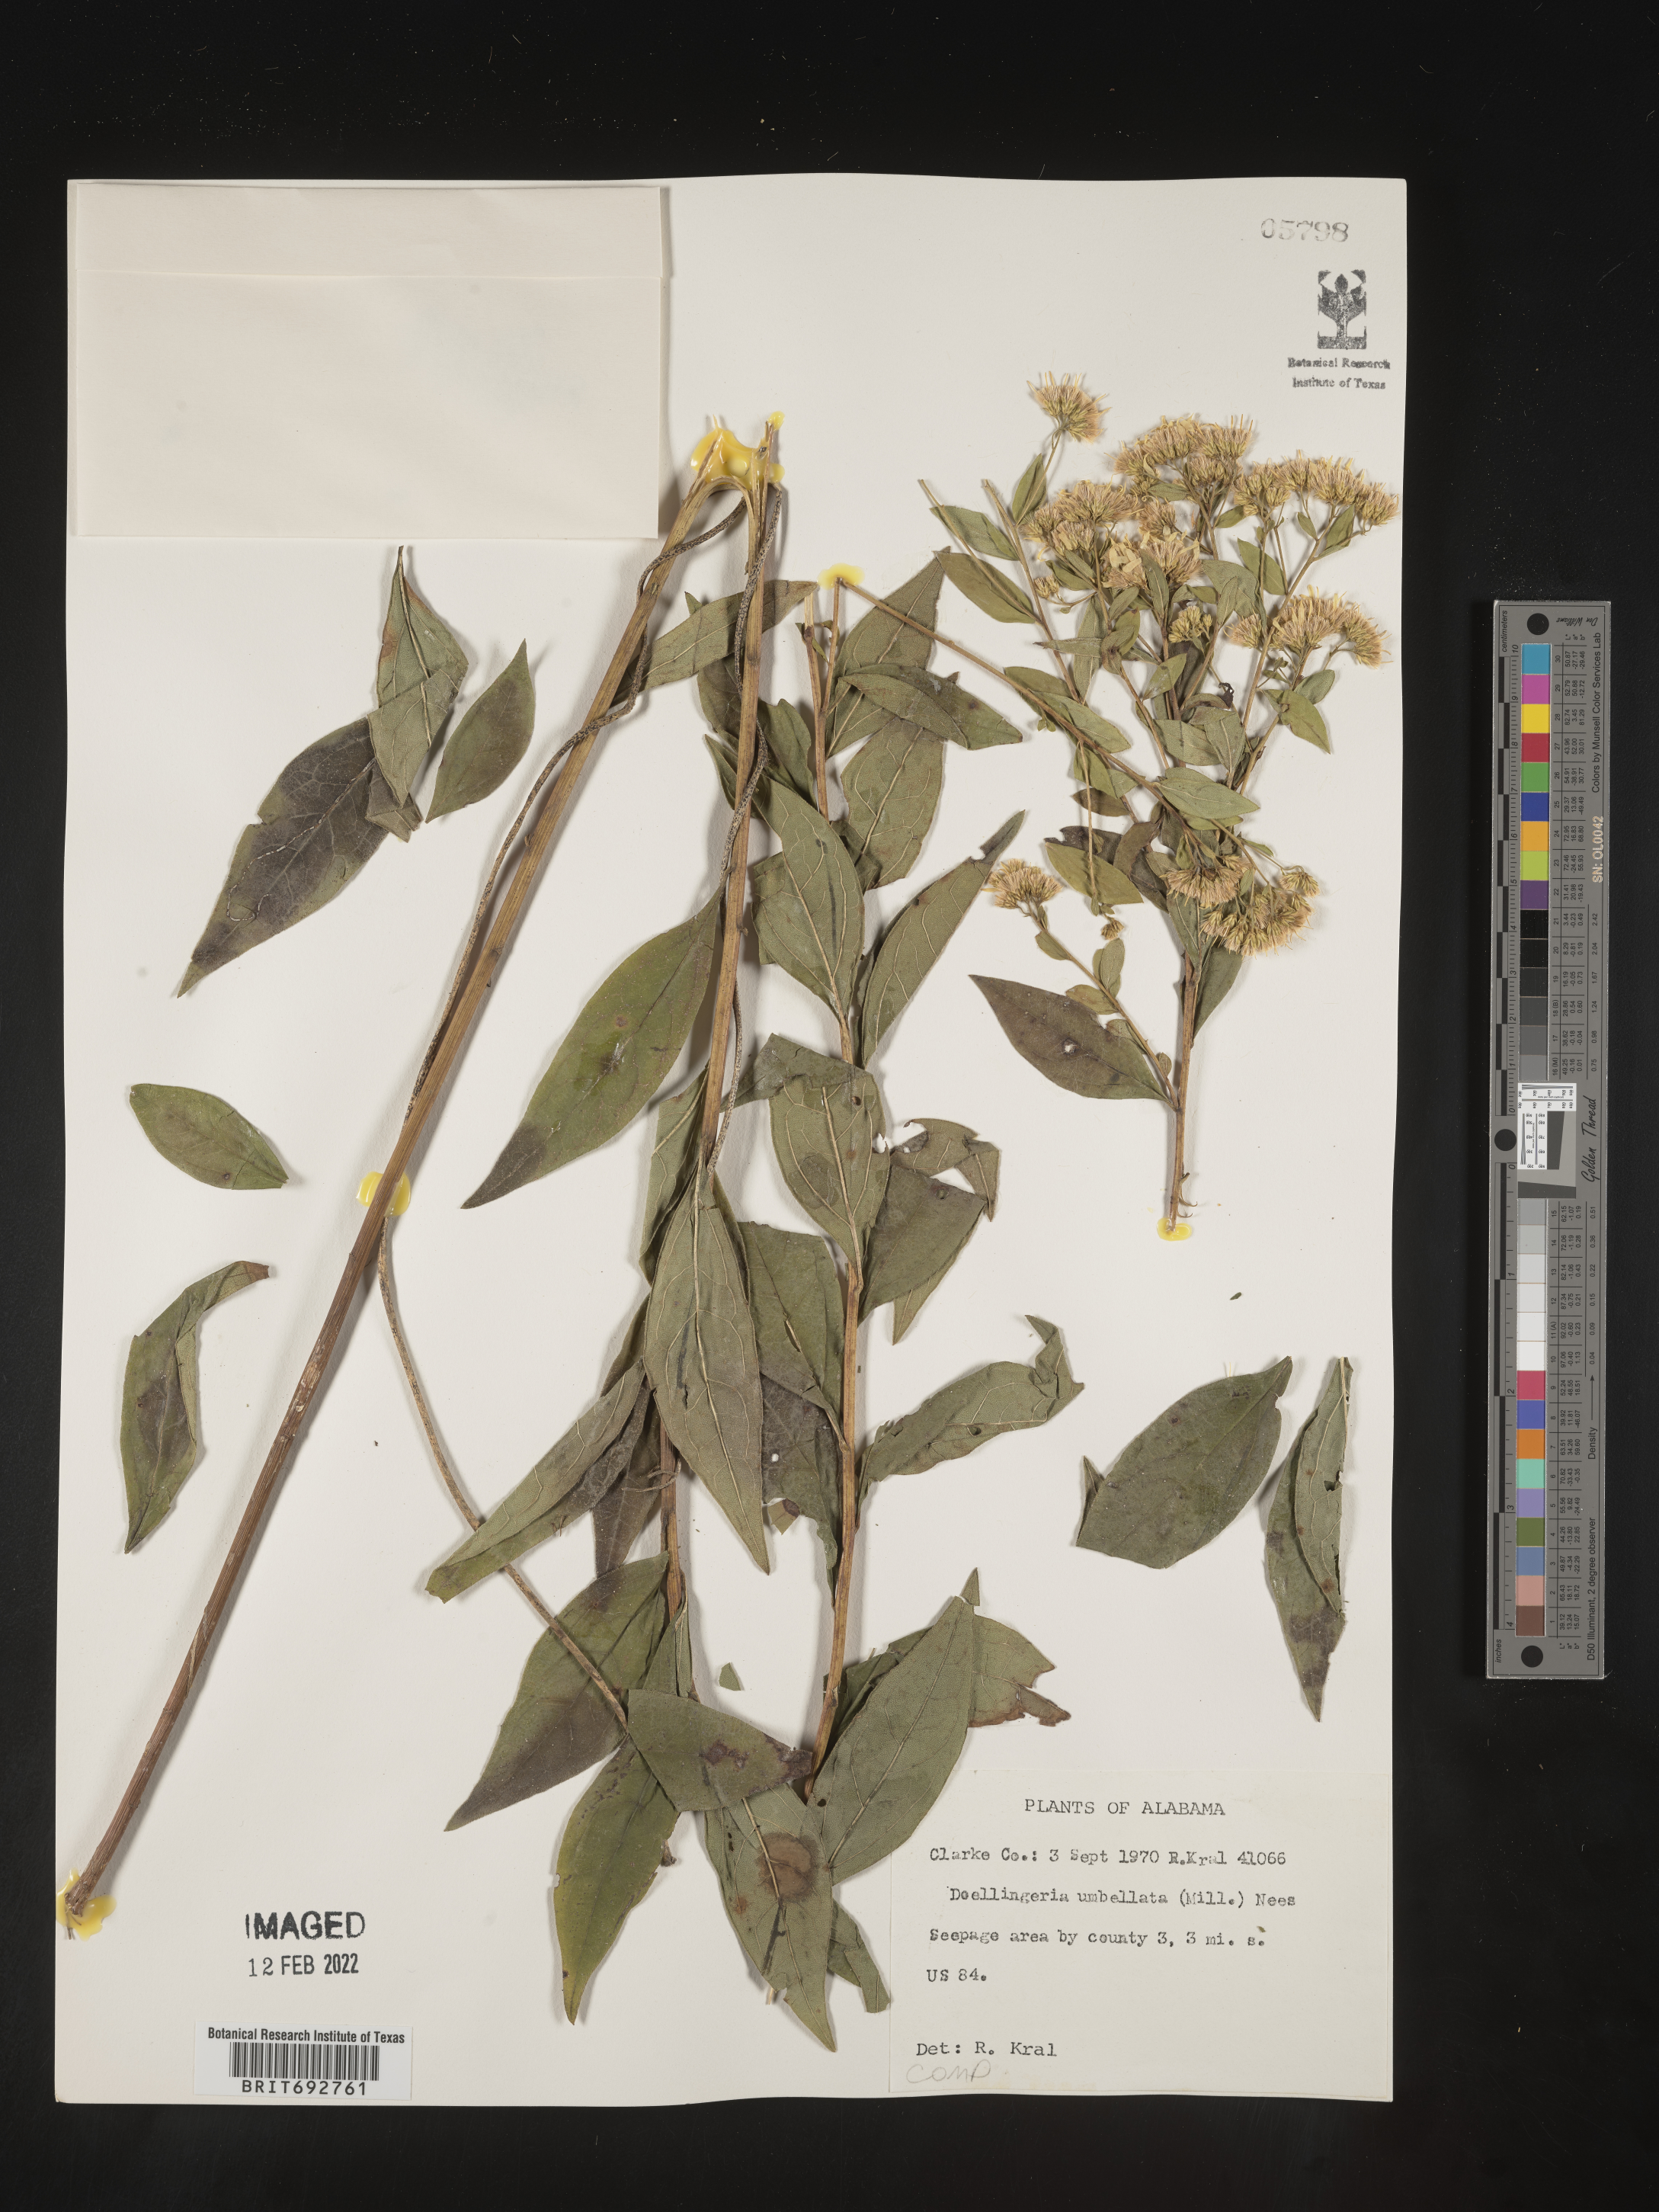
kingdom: Plantae
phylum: Tracheophyta
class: Magnoliopsida
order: Asterales
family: Asteraceae
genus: Doellingeria
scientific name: Doellingeria sericocarpoides
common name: Southern tall flat-top aster
